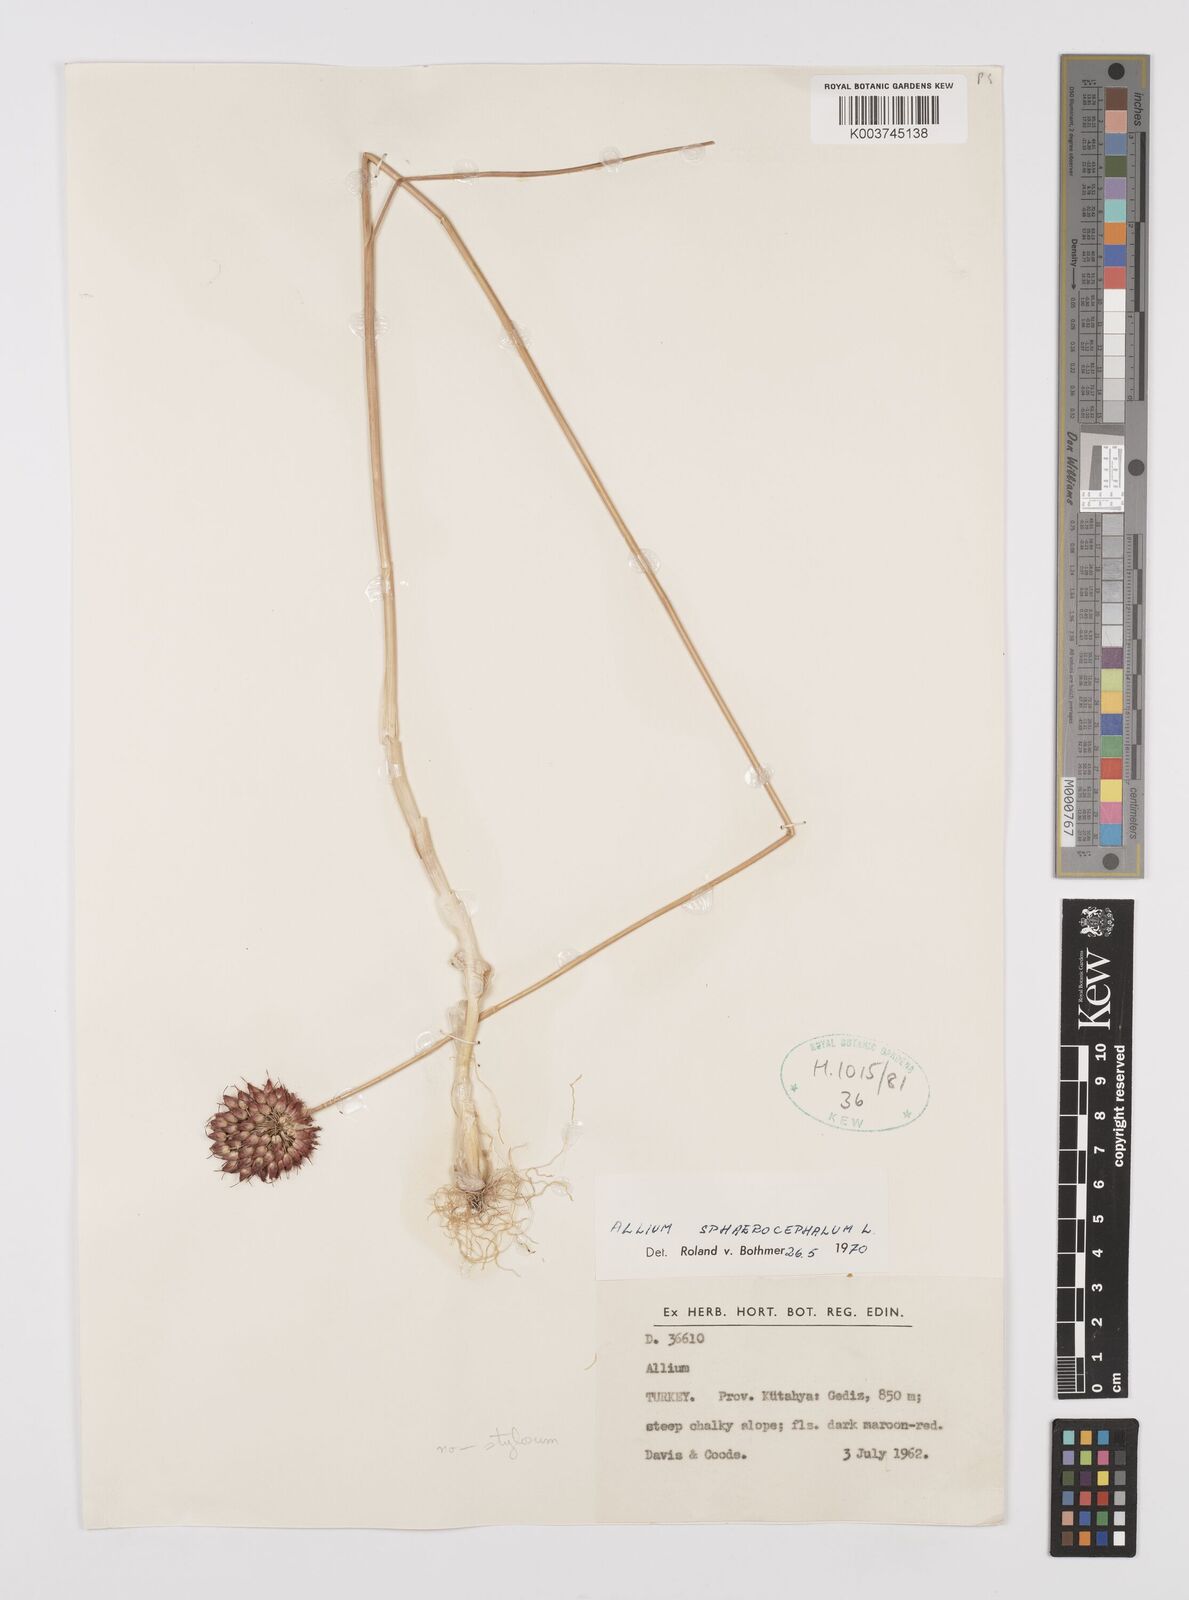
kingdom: Plantae
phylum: Tracheophyta
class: Liliopsida
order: Asparagales
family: Amaryllidaceae
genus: Allium
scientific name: Allium stylosum
